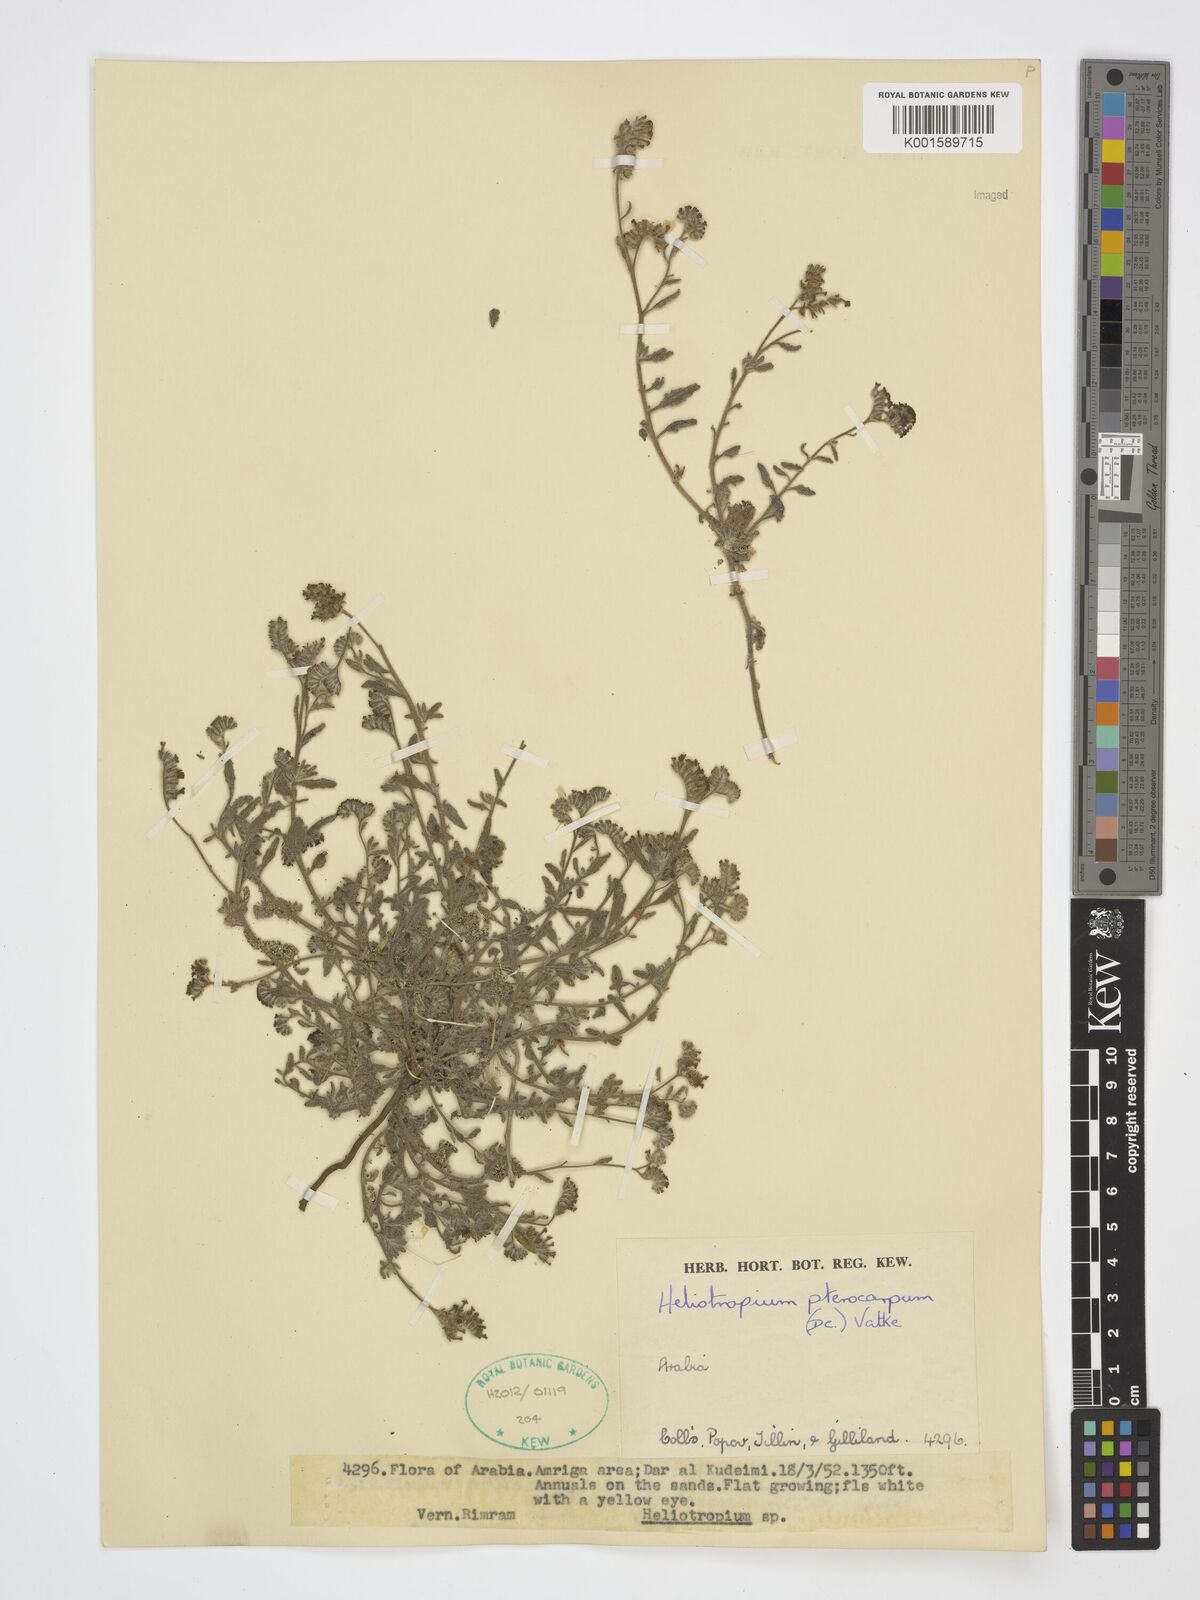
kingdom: Plantae
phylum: Tracheophyta
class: Magnoliopsida
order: Boraginales
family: Heliotropiaceae
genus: Heliotropium
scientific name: Heliotropium pterocarpum
